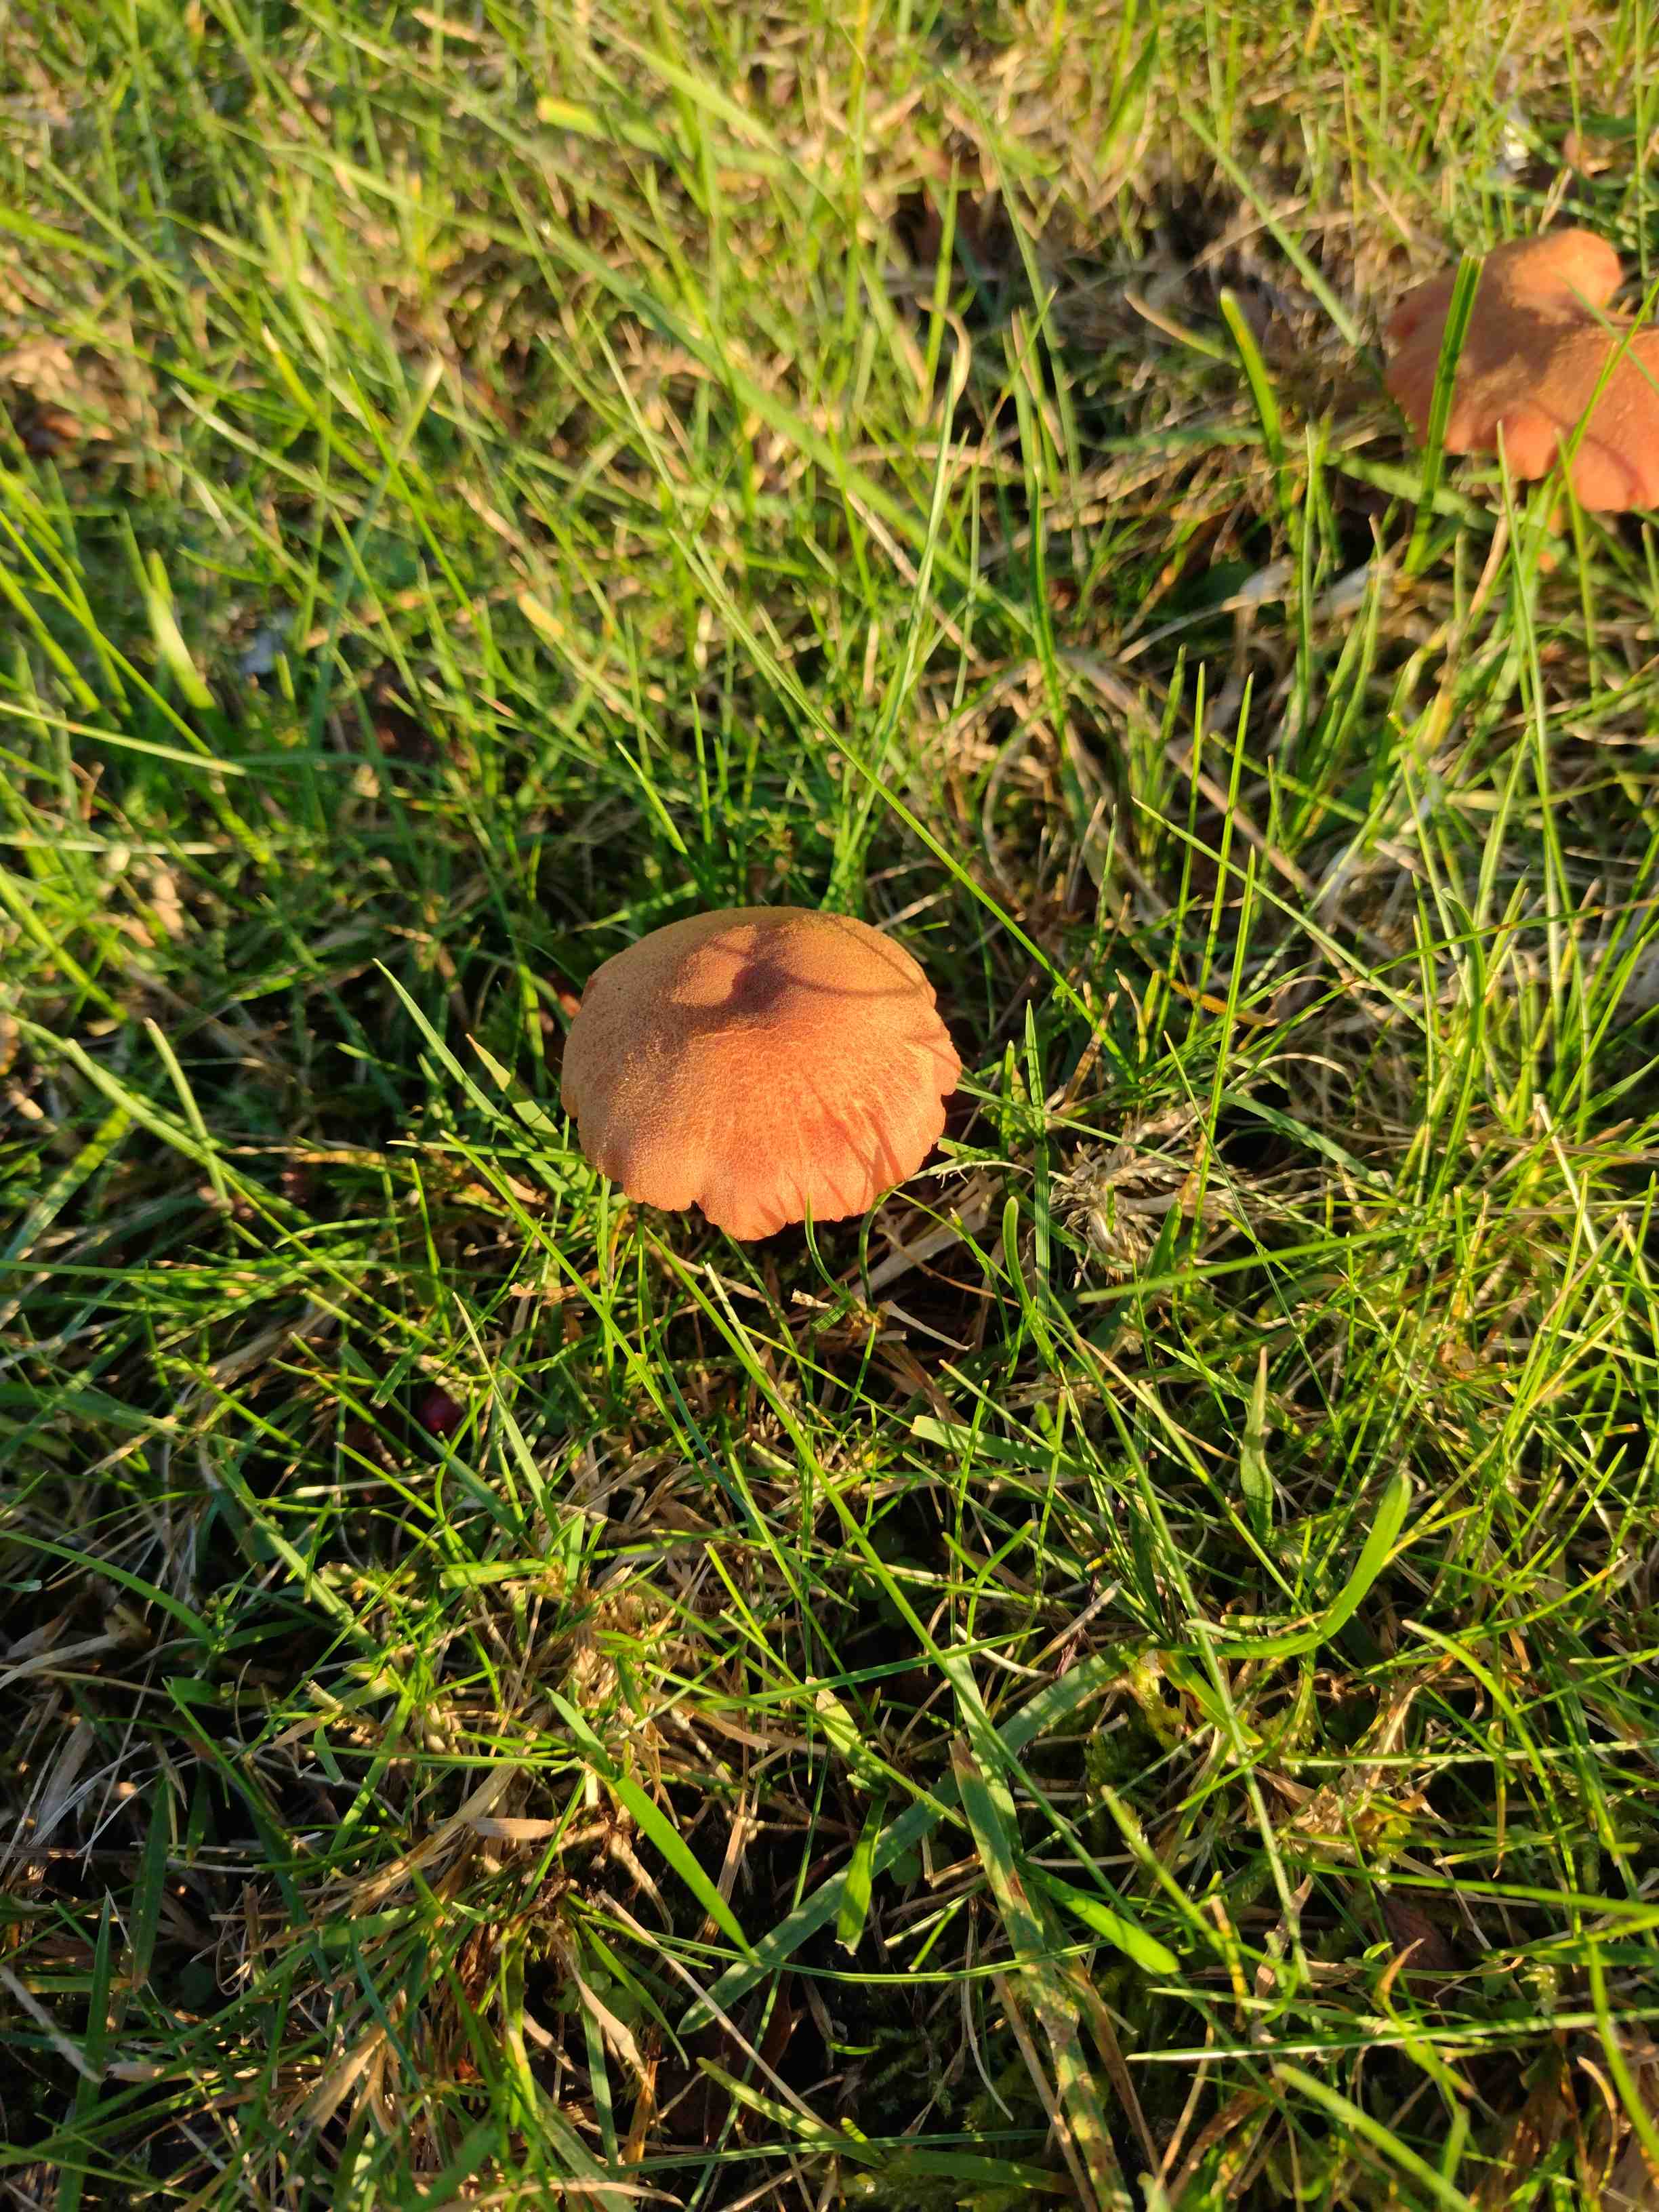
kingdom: Fungi
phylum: Basidiomycota
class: Agaricomycetes
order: Agaricales
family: Hydnangiaceae
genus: Laccaria
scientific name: Laccaria
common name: ametysthat
